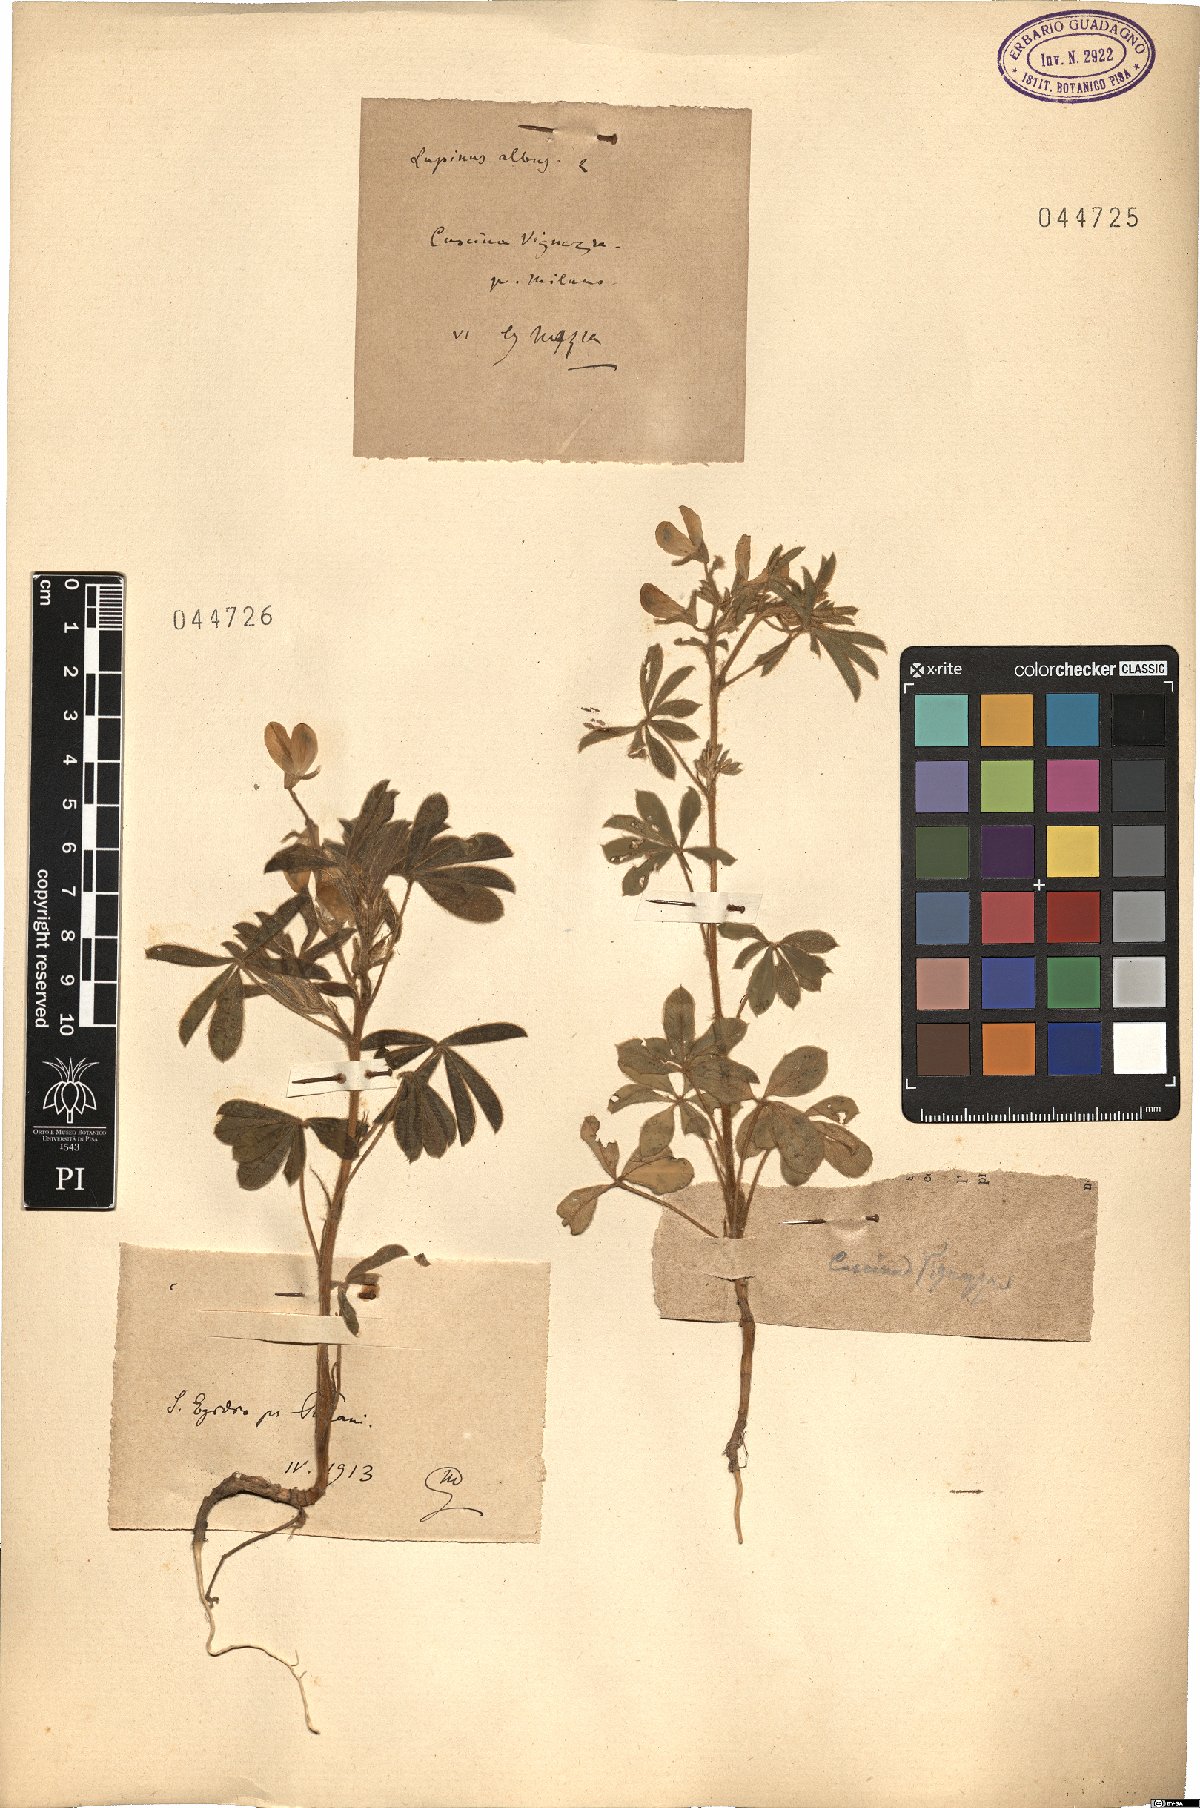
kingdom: Plantae
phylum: Tracheophyta
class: Magnoliopsida
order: Fabales
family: Fabaceae
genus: Lupinus
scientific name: Lupinus albus
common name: White lupin
